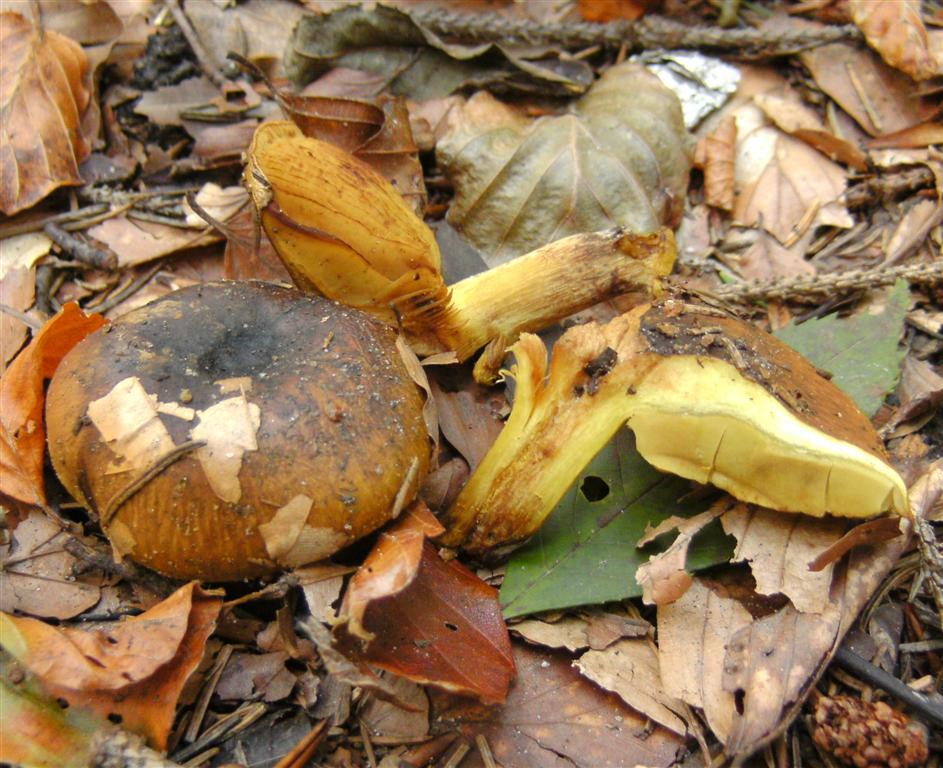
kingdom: Fungi
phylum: Basidiomycota
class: Agaricomycetes
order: Agaricales
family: Cortinariaceae
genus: Calonarius
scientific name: Calonarius citrinus
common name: citrongul slørhat
